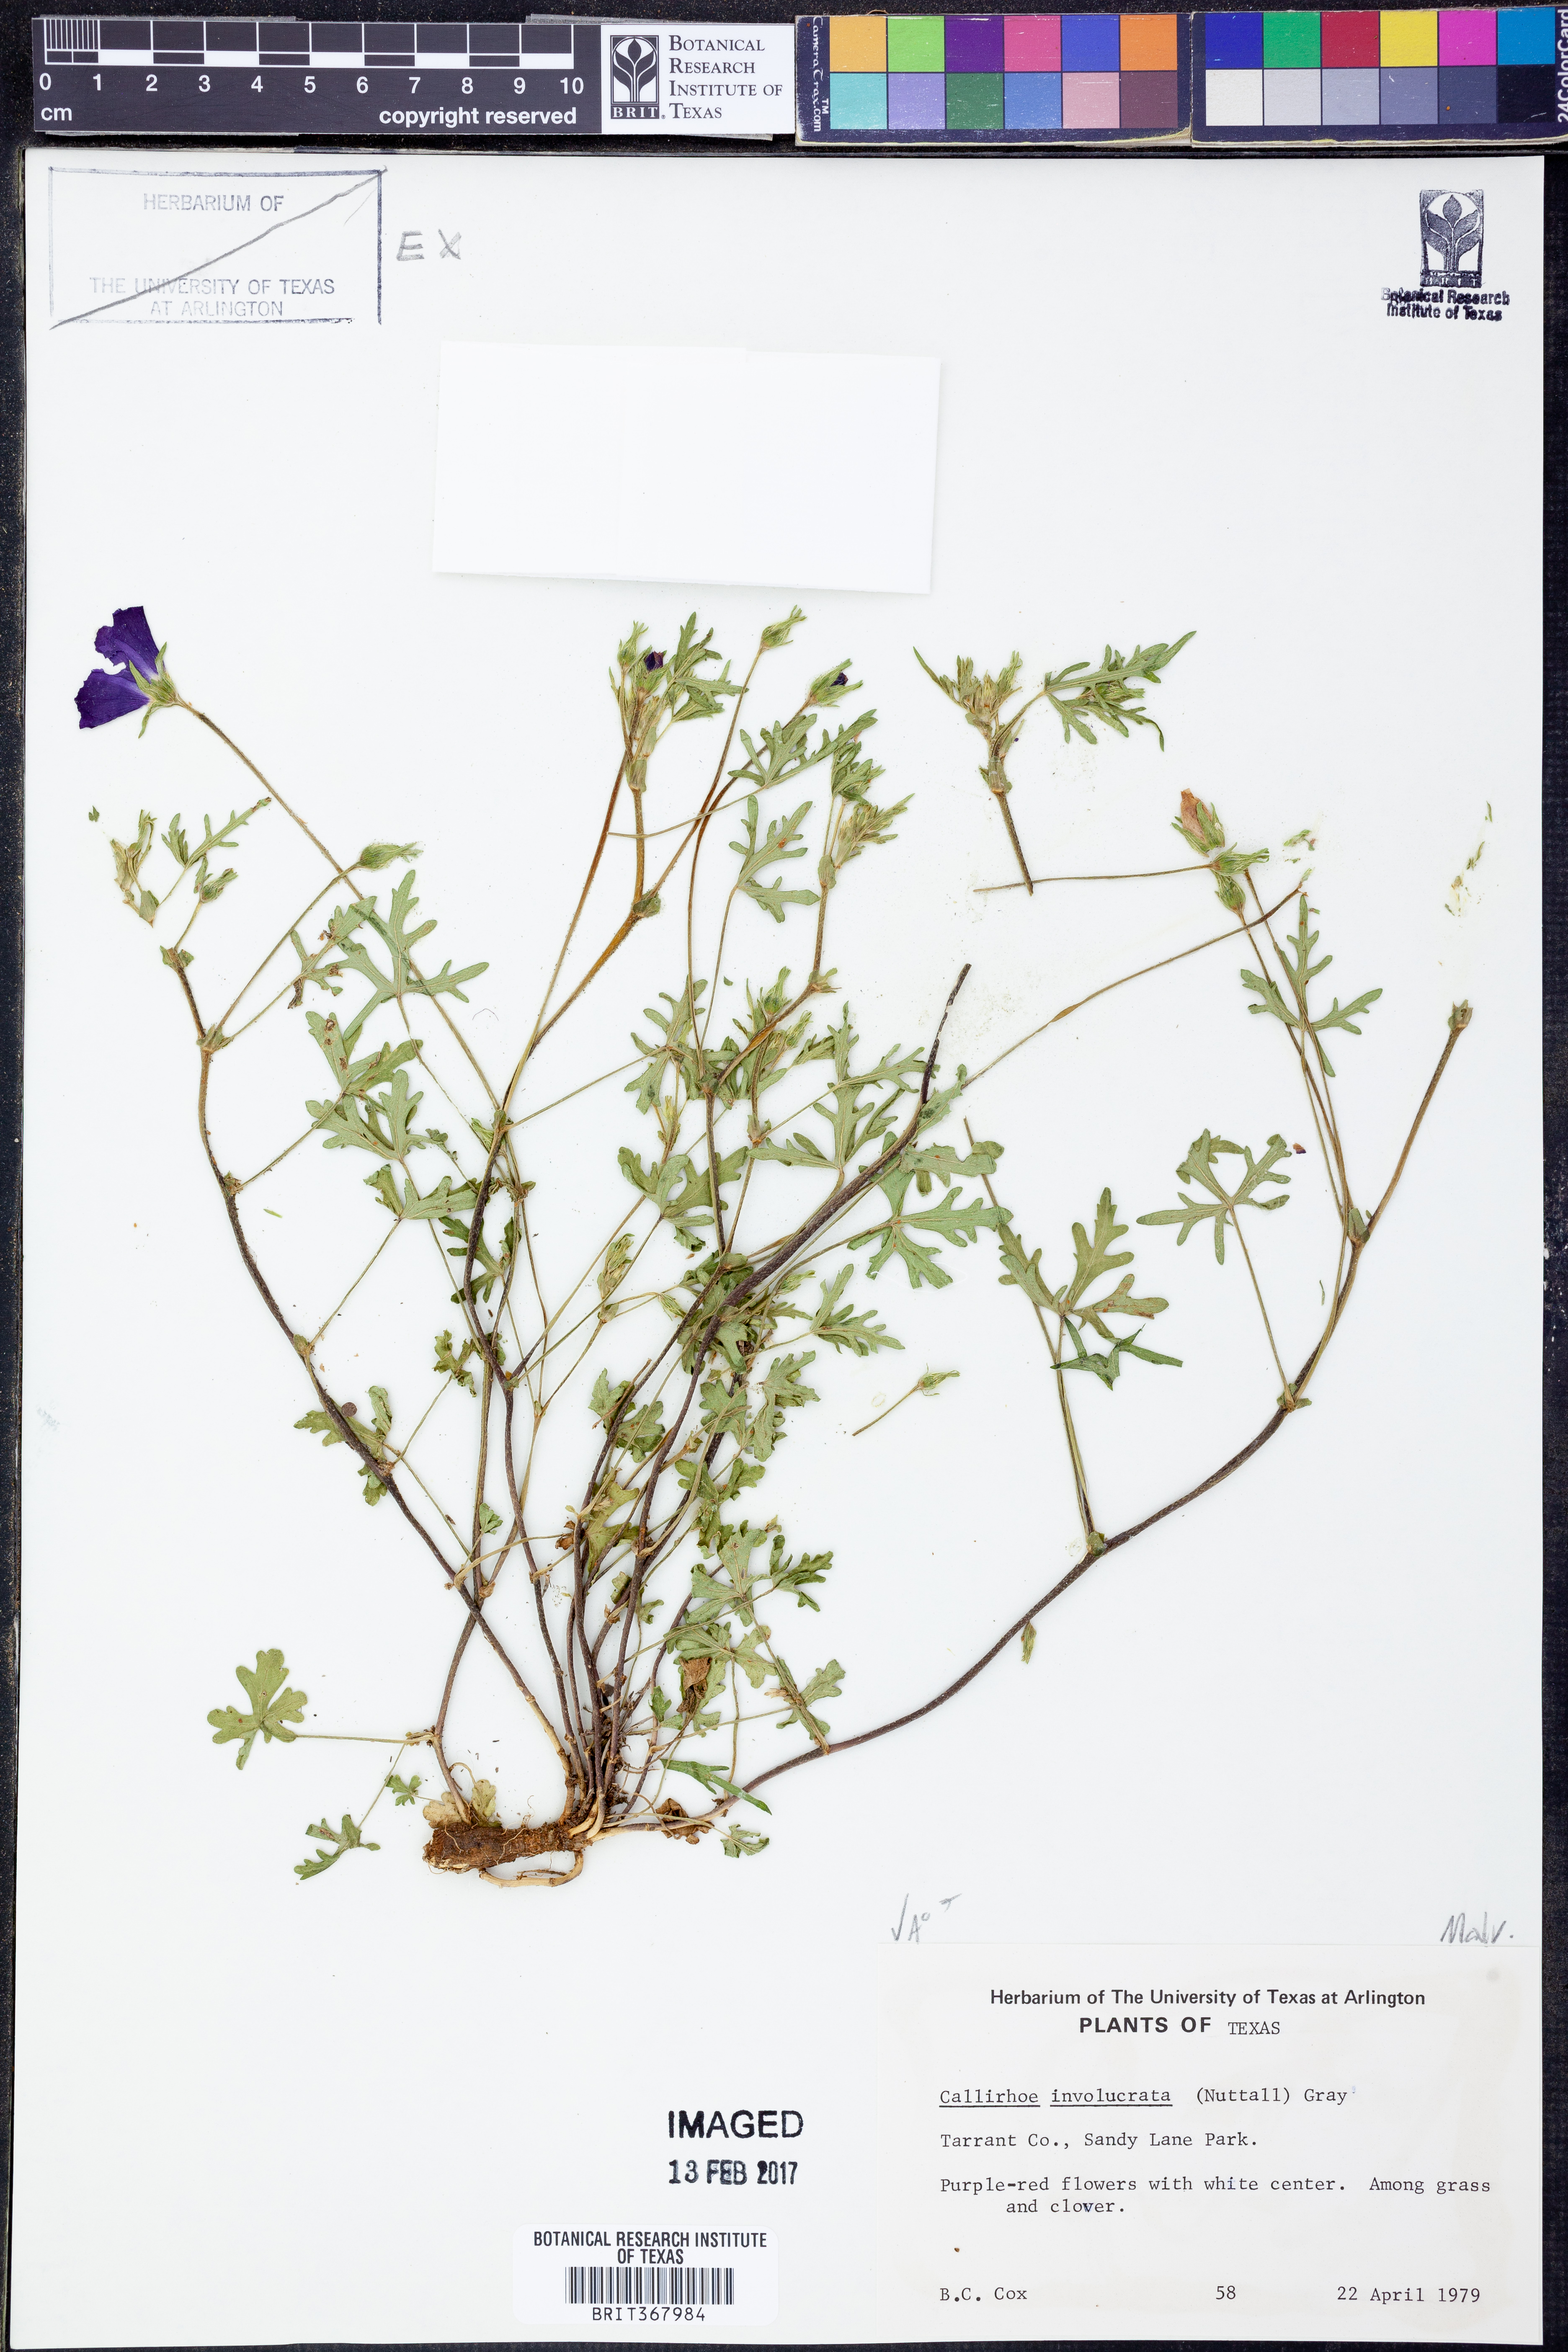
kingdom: Plantae
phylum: Tracheophyta
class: Magnoliopsida
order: Malvales
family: Malvaceae
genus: Callirhoe
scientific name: Callirhoe involucrata
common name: Purple poppy-mallow
